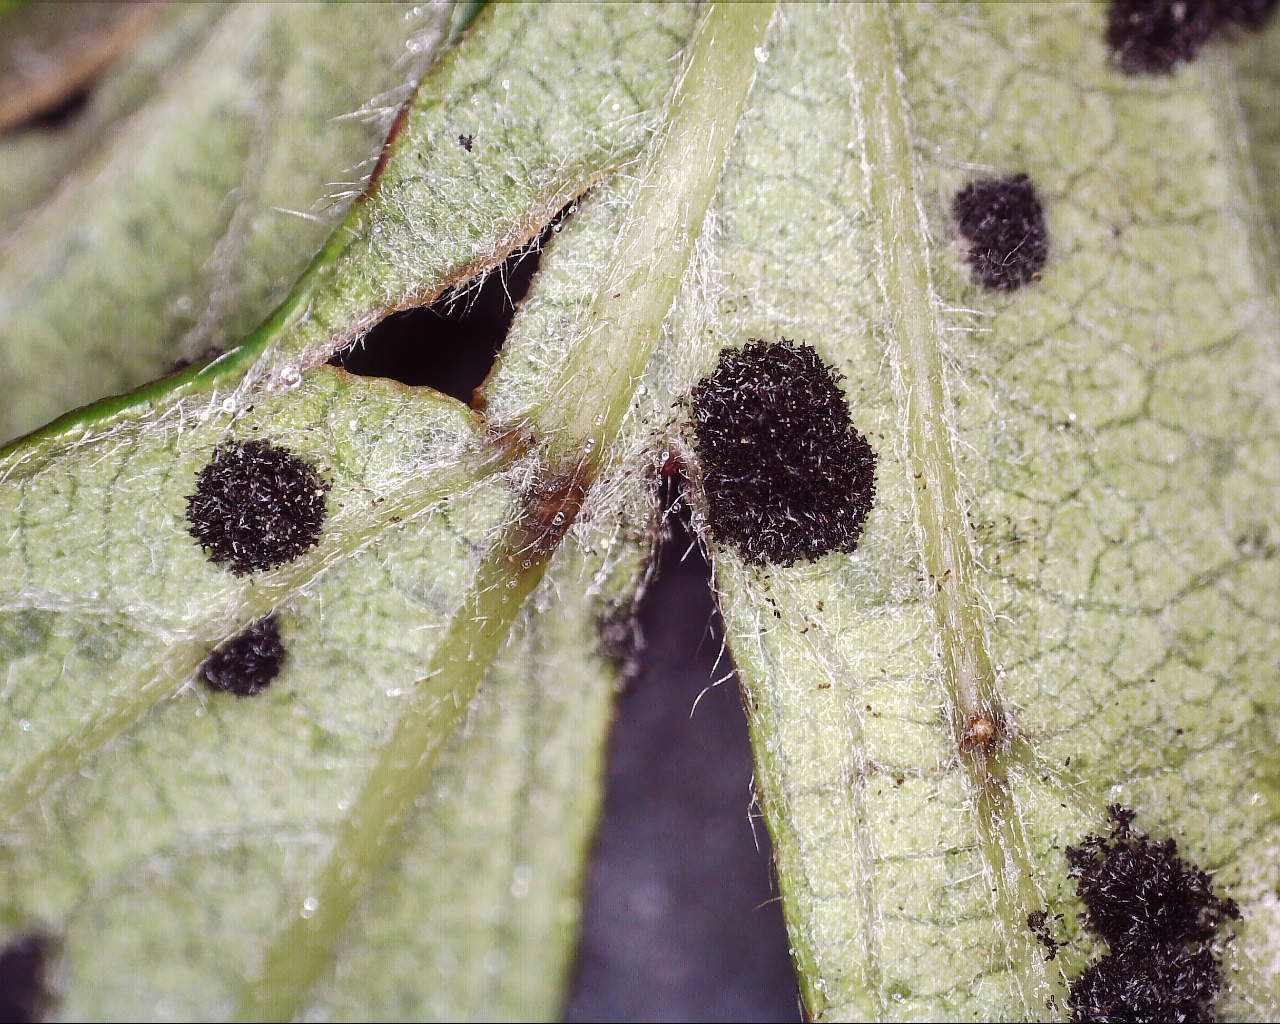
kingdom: Fungi
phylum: Basidiomycota
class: Pucciniomycetes
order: Pucciniales
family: Phragmidiaceae
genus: Phragmidium
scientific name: Phragmidium violaceum
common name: violet flercellerust
